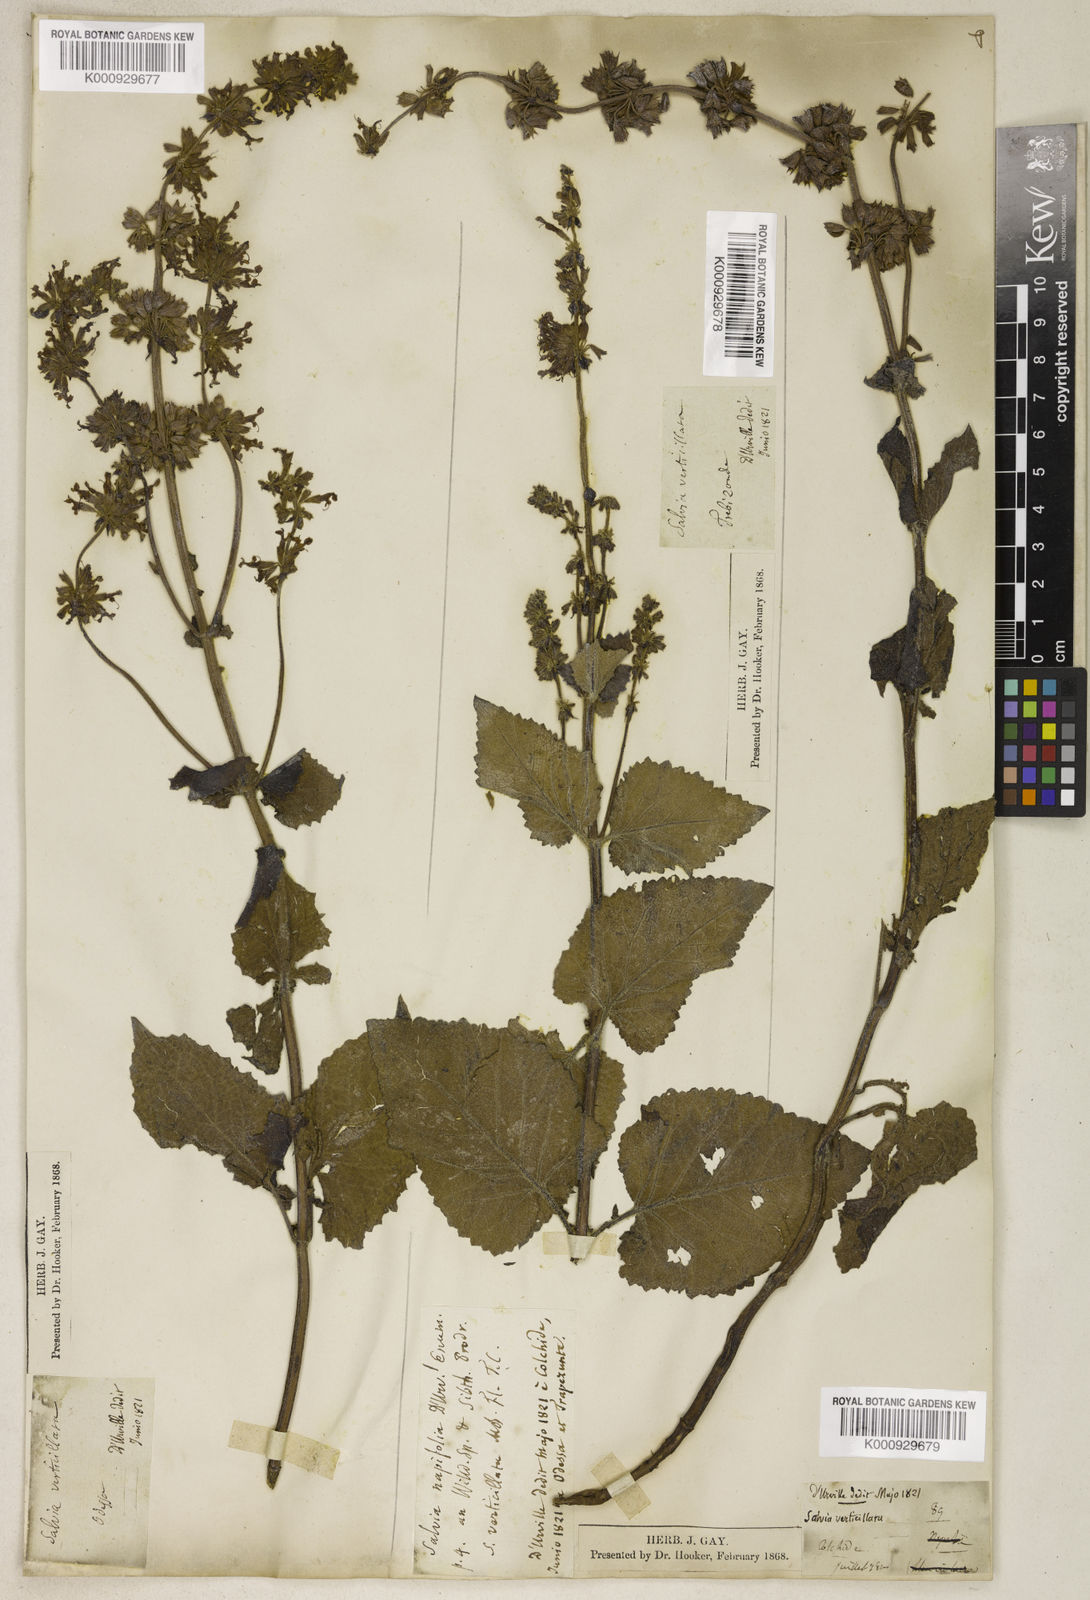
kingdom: Plantae
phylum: Tracheophyta
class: Magnoliopsida
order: Lamiales
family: Lamiaceae
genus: Salvia
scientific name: Salvia verticillata
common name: Whorled clary
